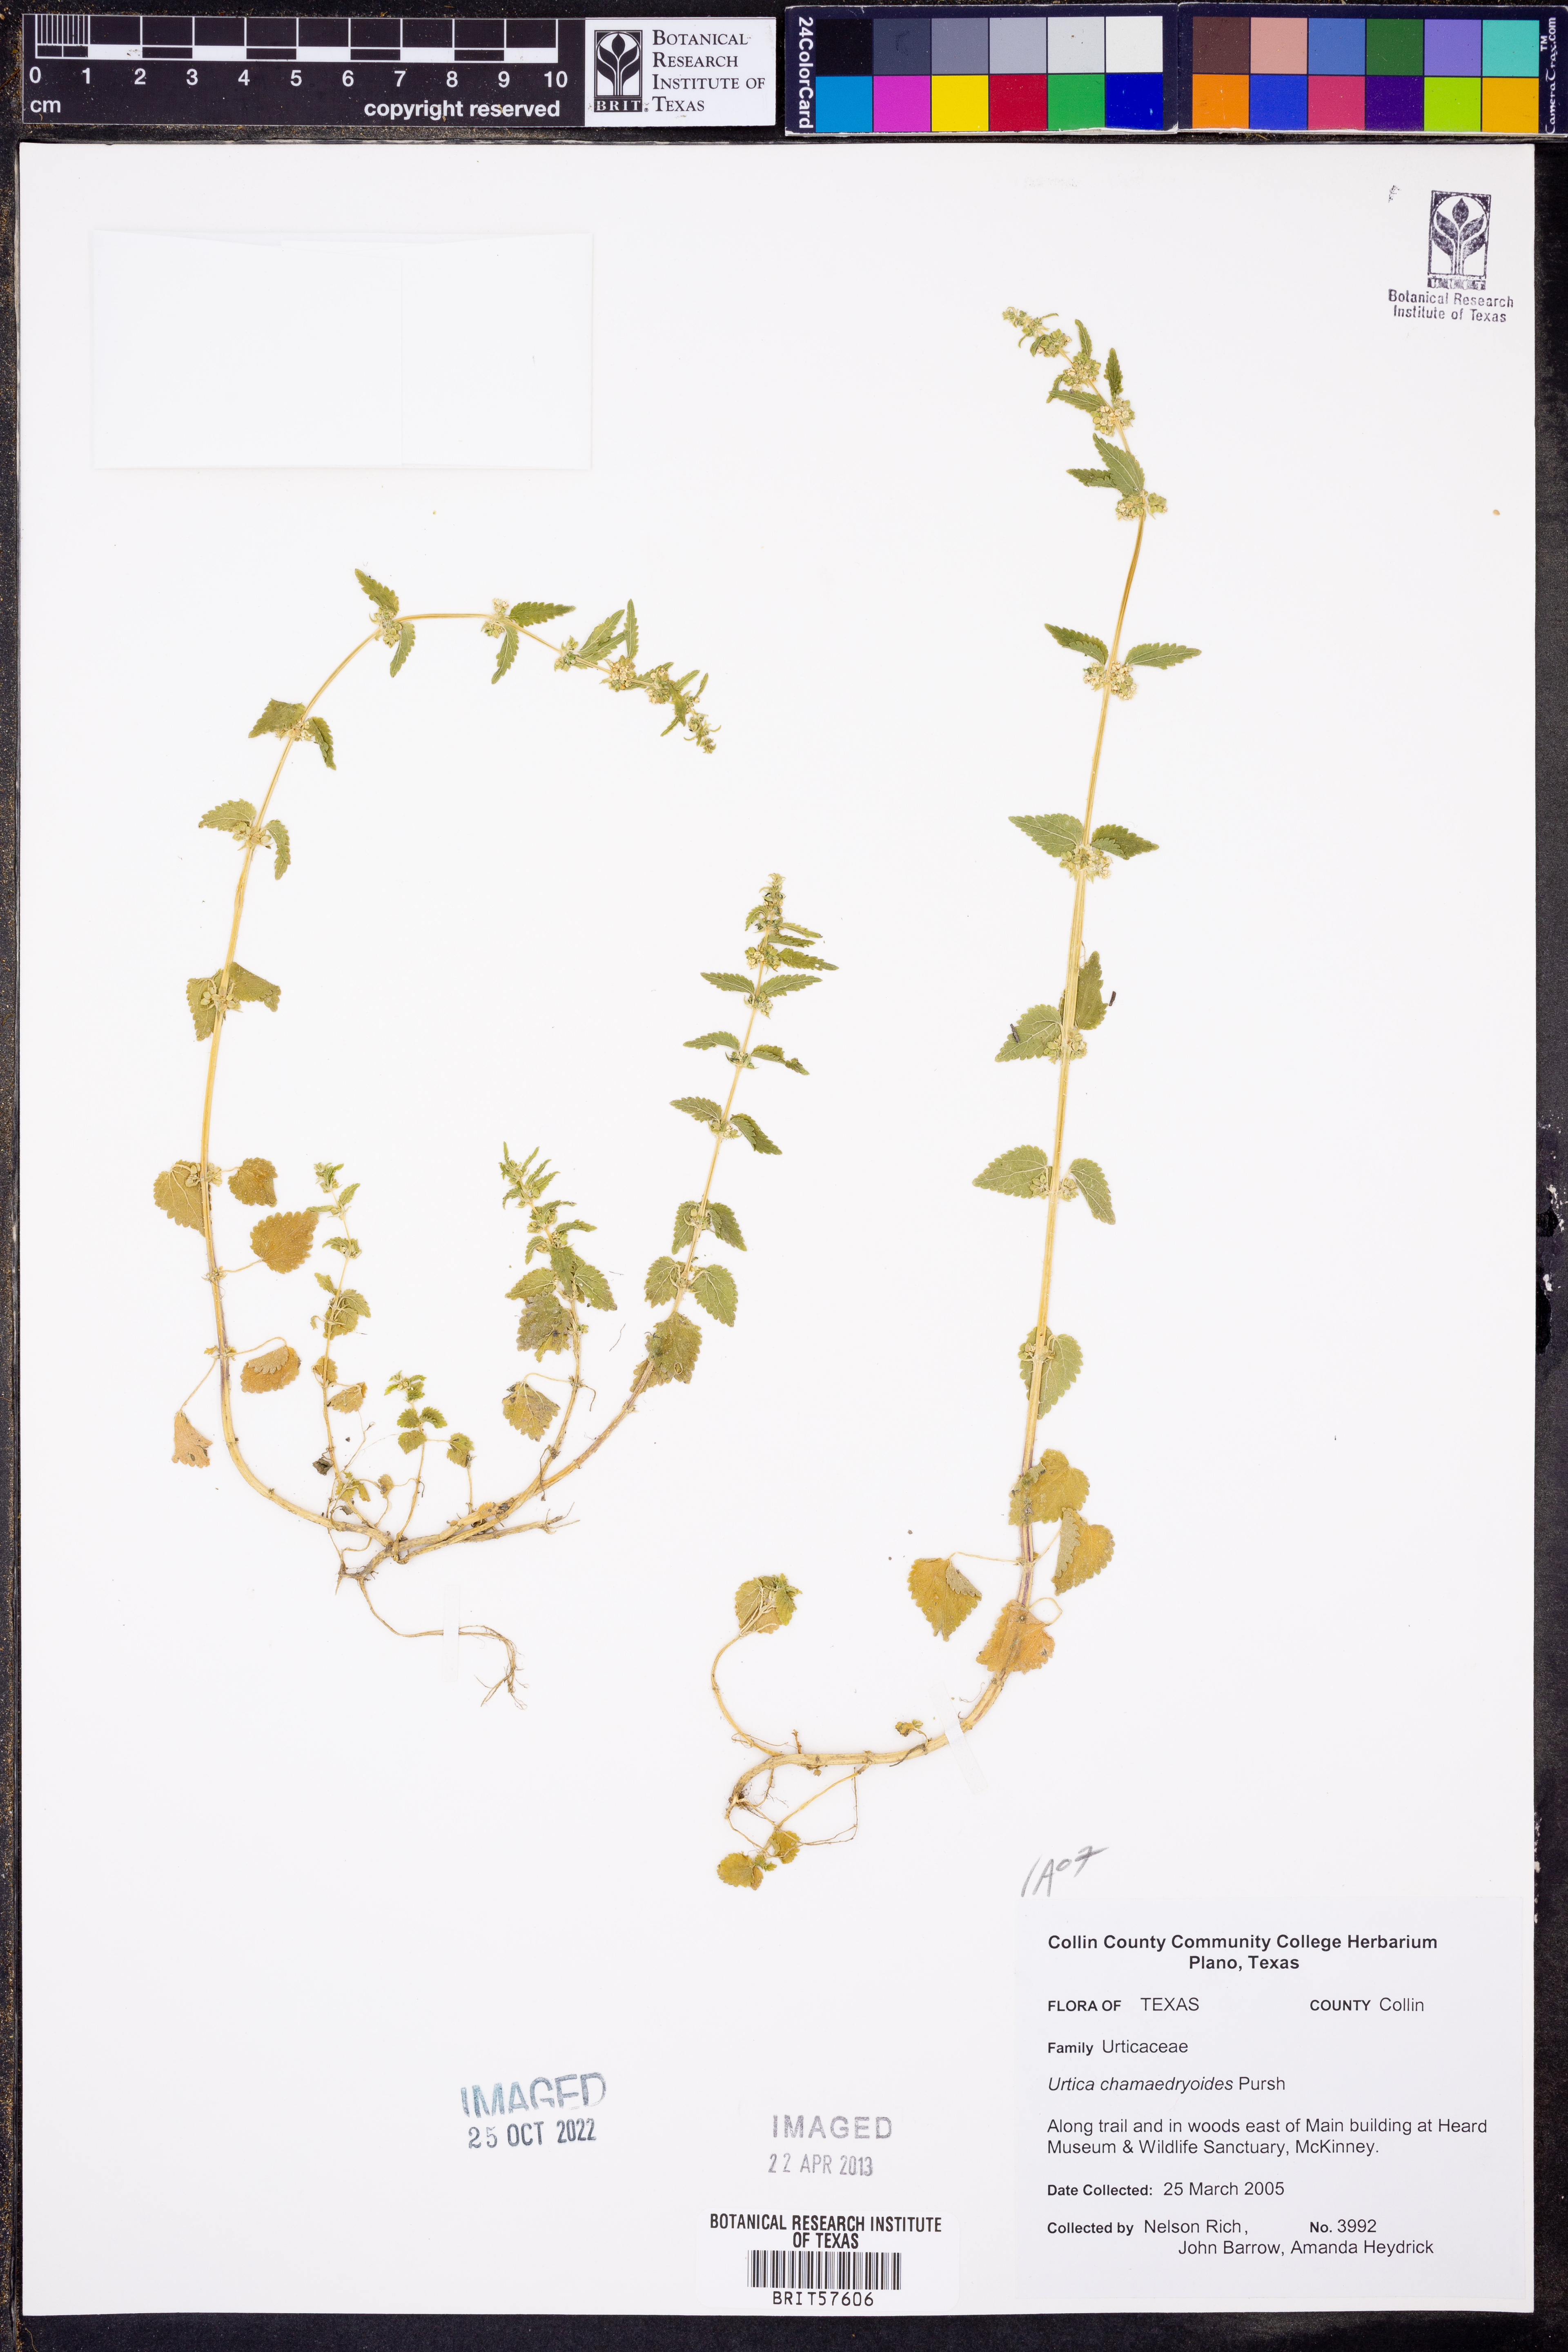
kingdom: Plantae
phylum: Tracheophyta
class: Magnoliopsida
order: Rosales
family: Urticaceae
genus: Urtica
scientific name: Urtica chamaedryoides
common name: Heart-leaf nettle
